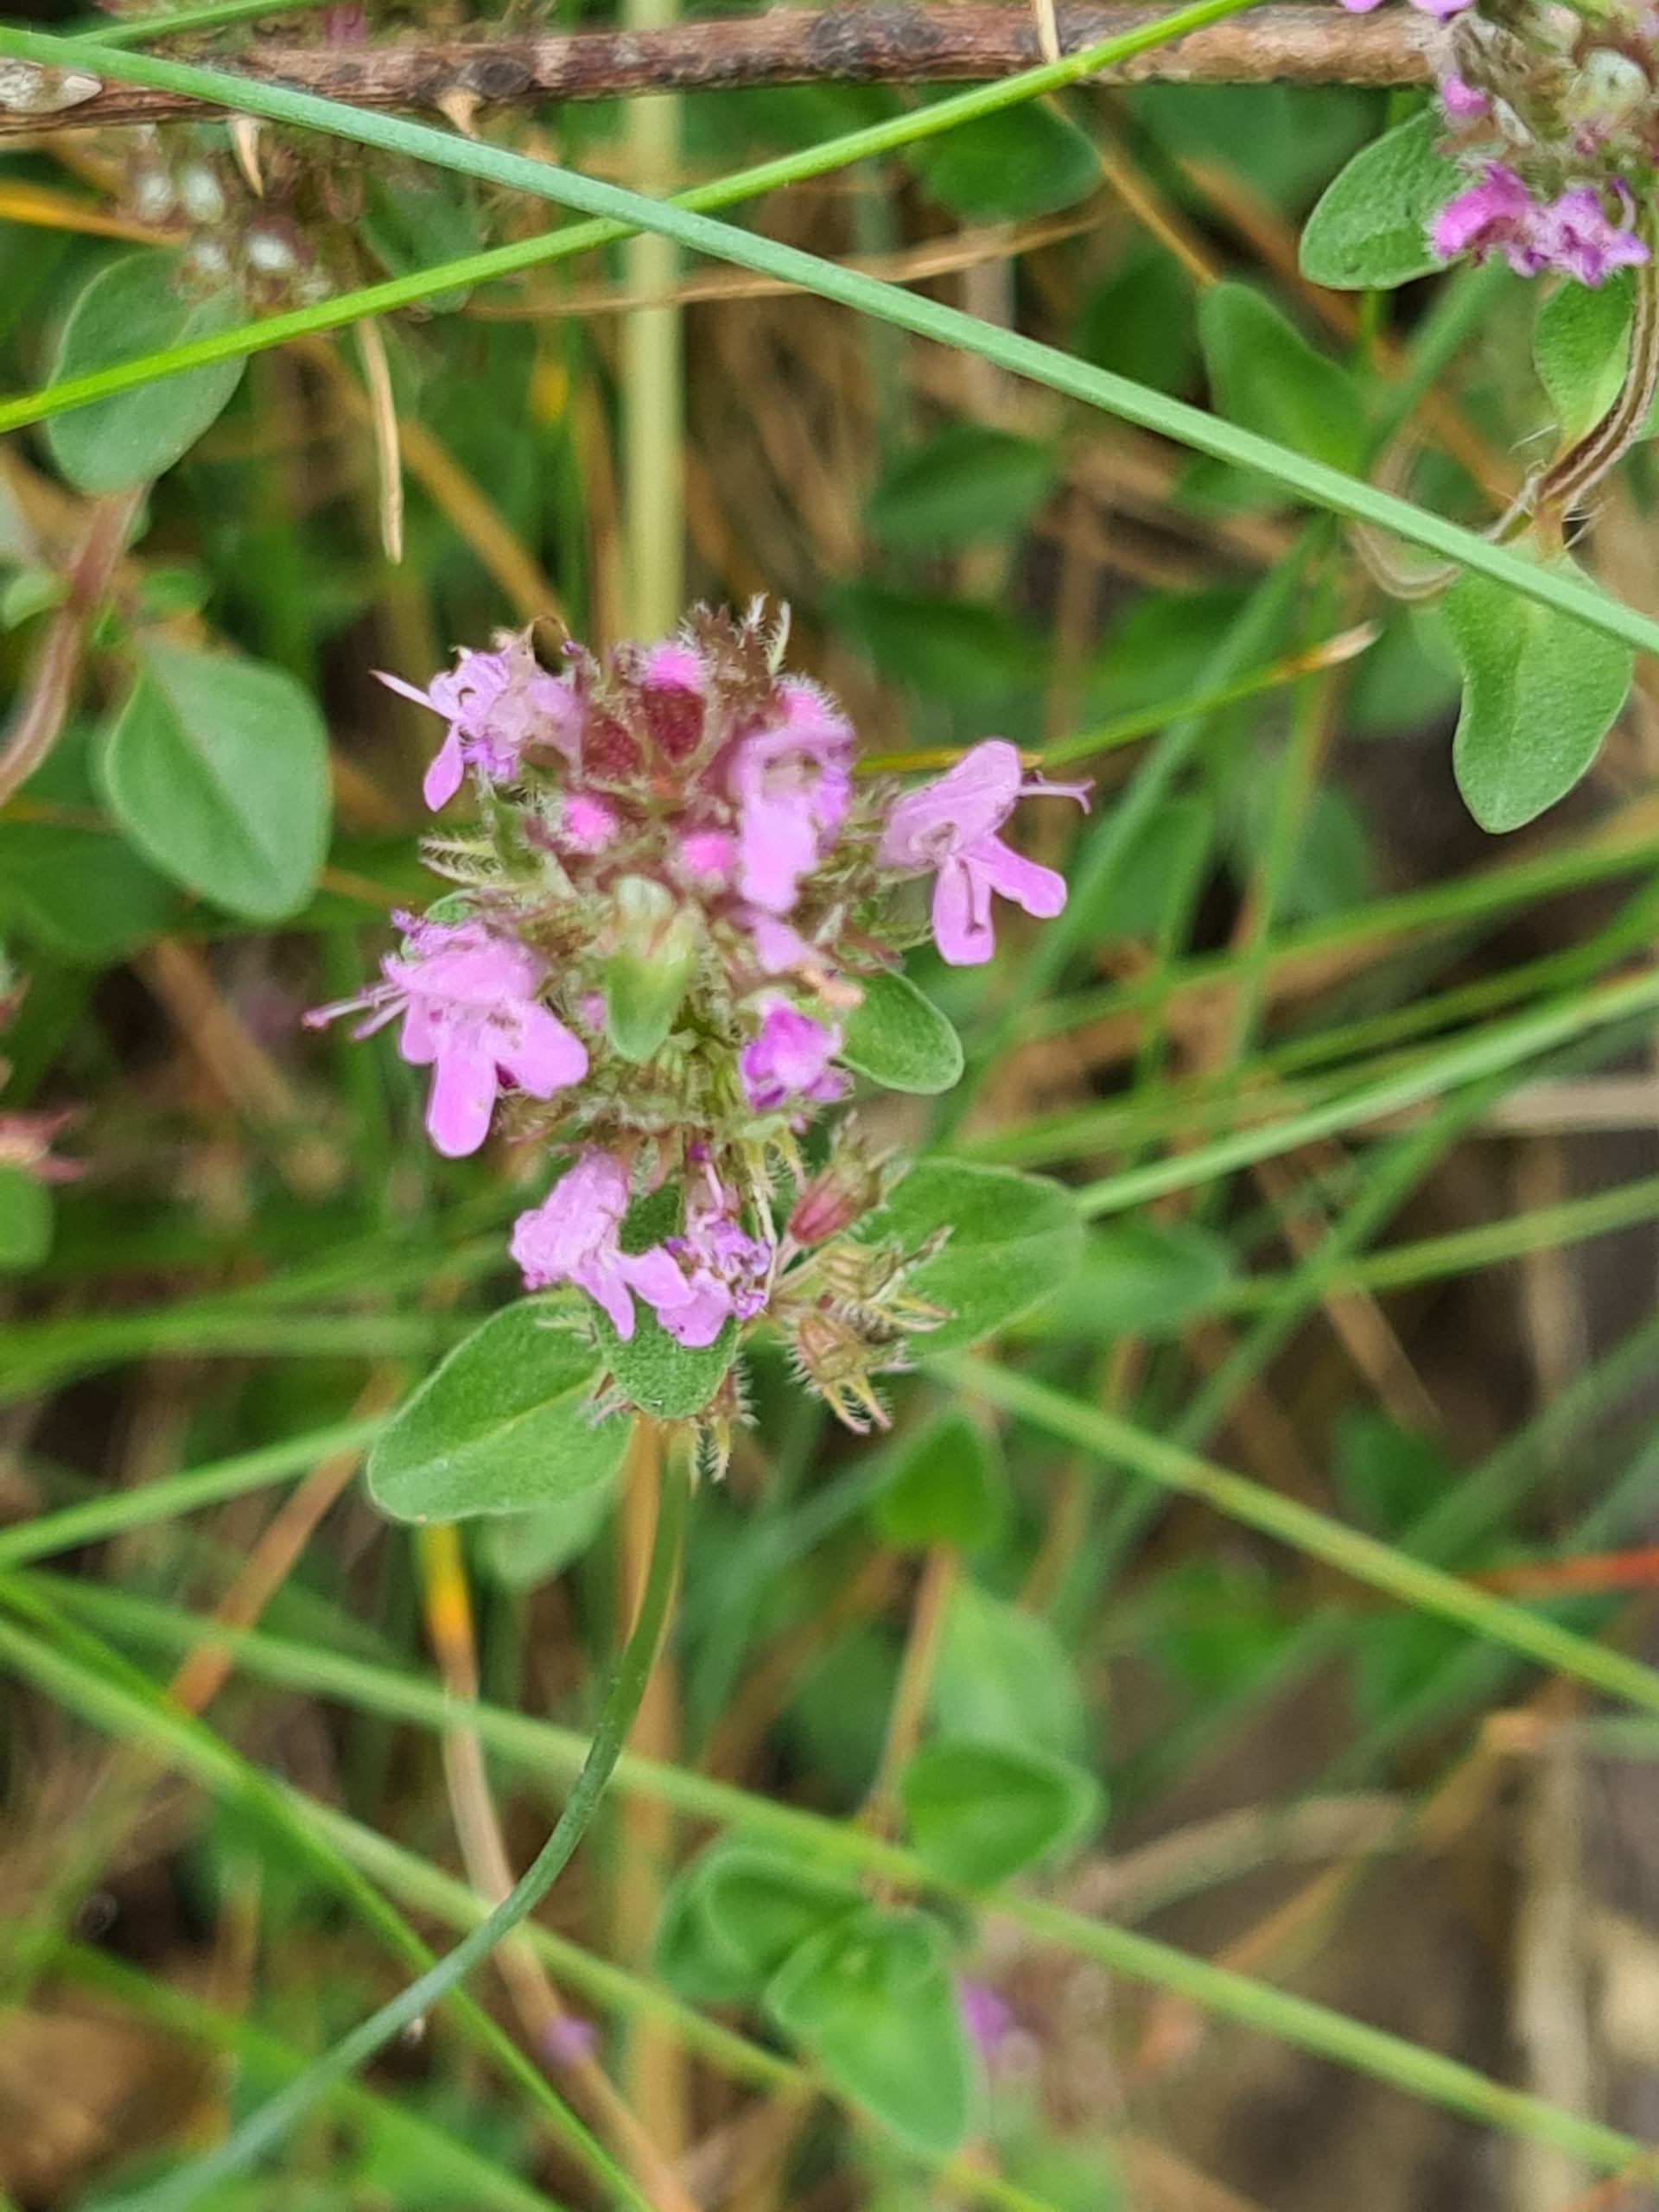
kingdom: Plantae
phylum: Tracheophyta
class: Magnoliopsida
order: Lamiales
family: Lamiaceae
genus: Thymus
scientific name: Thymus pulegioides
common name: Bredbladet timian
